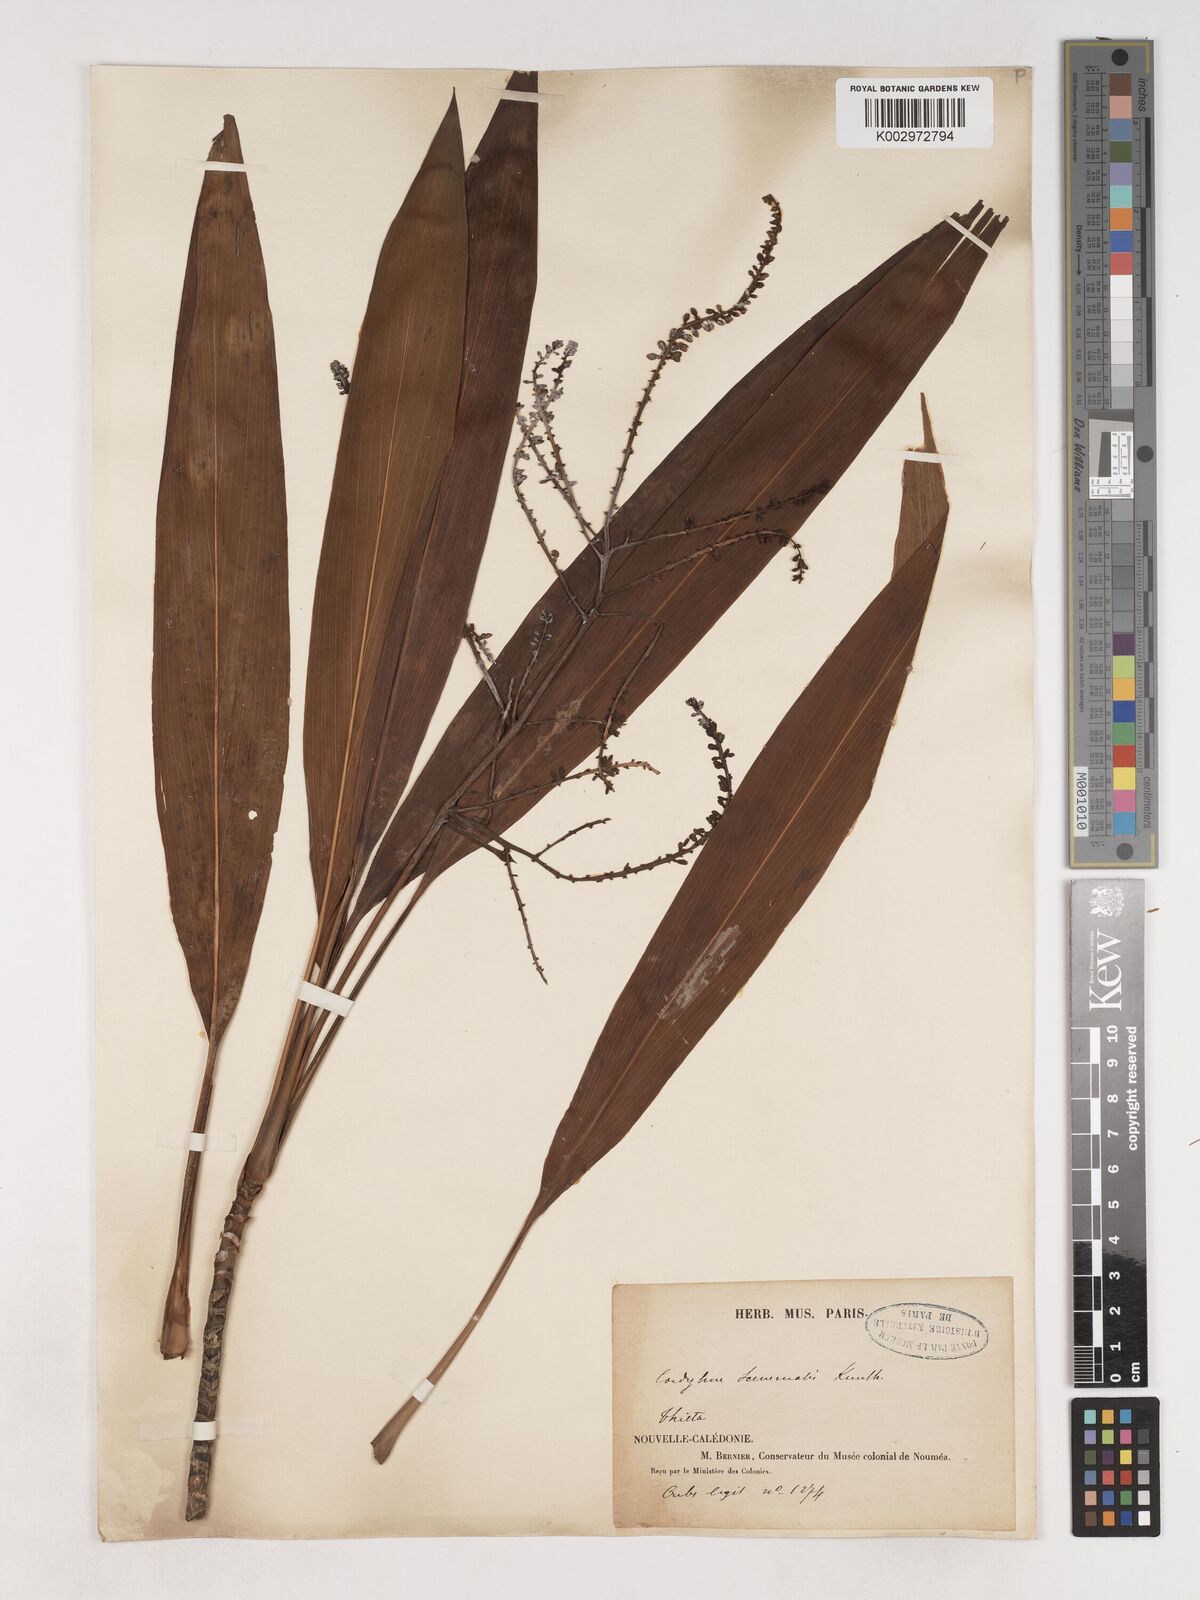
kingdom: Plantae
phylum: Tracheophyta
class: Liliopsida
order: Asparagales
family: Asparagaceae
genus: Cordyline
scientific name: Cordyline fruticosa
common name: Good-luck-plant
